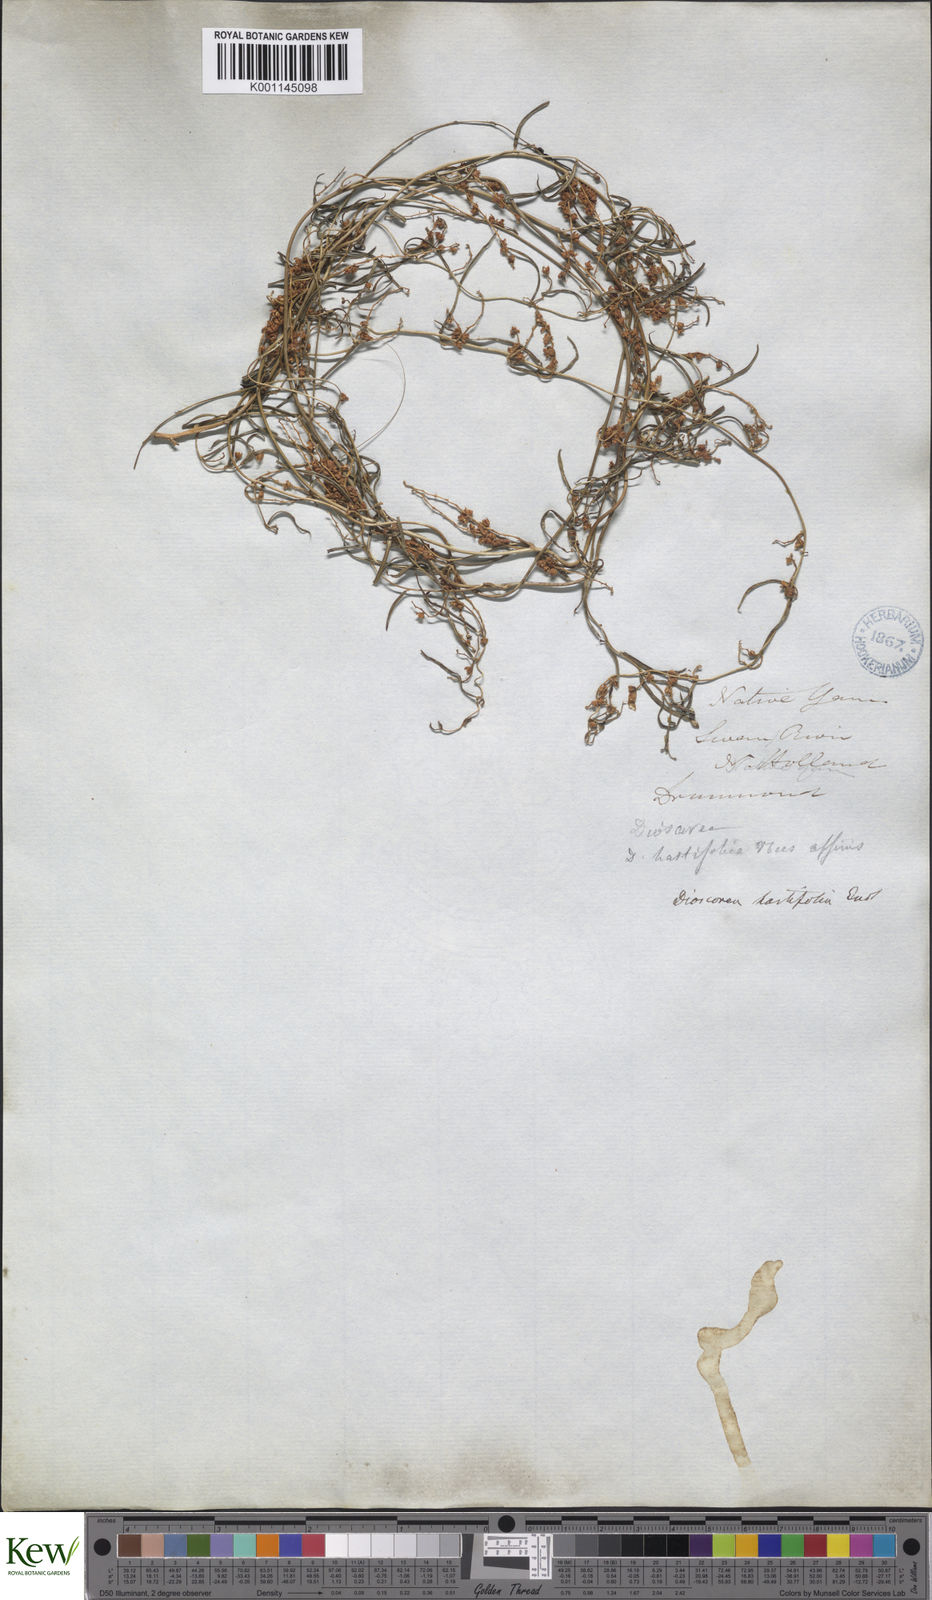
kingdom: Plantae
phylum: Tracheophyta
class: Liliopsida
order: Dioscoreales
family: Dioscoreaceae
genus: Dioscorea
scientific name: Dioscorea hastifolia
